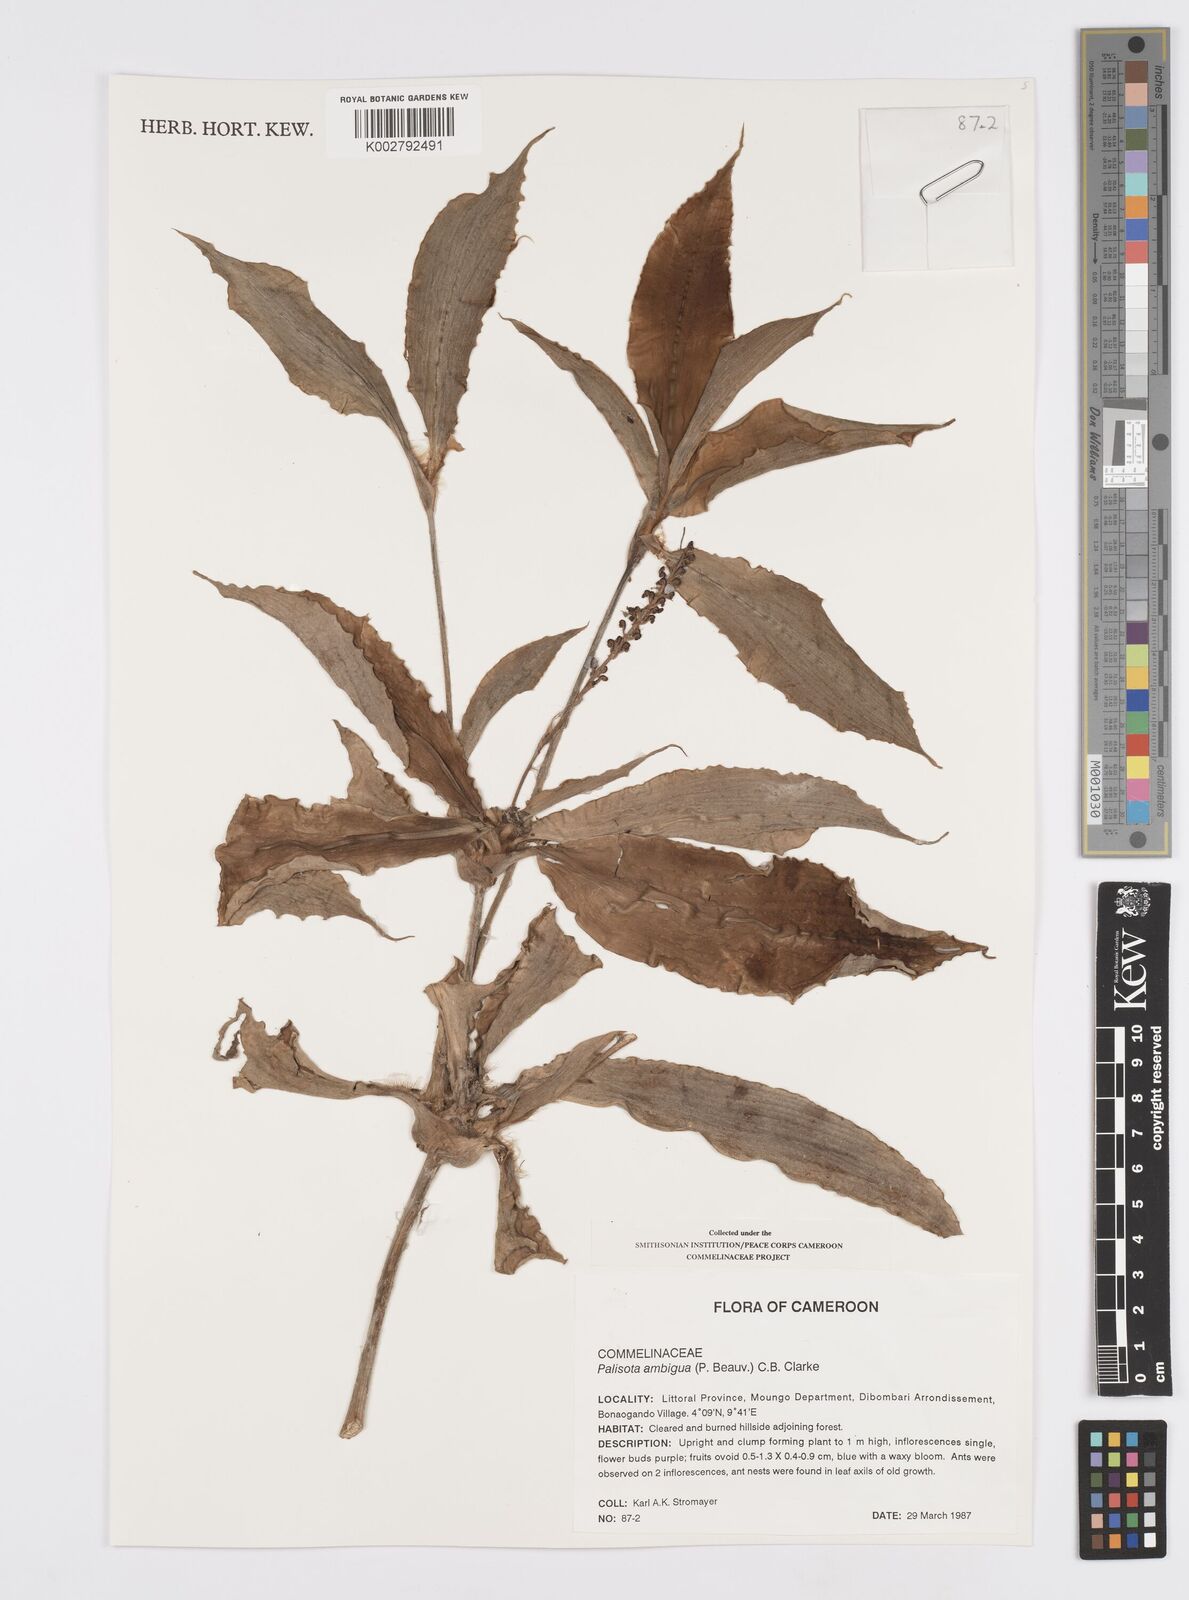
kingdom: Plantae
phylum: Tracheophyta
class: Liliopsida
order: Commelinales
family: Commelinaceae
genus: Palisota
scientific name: Palisota ambigua
